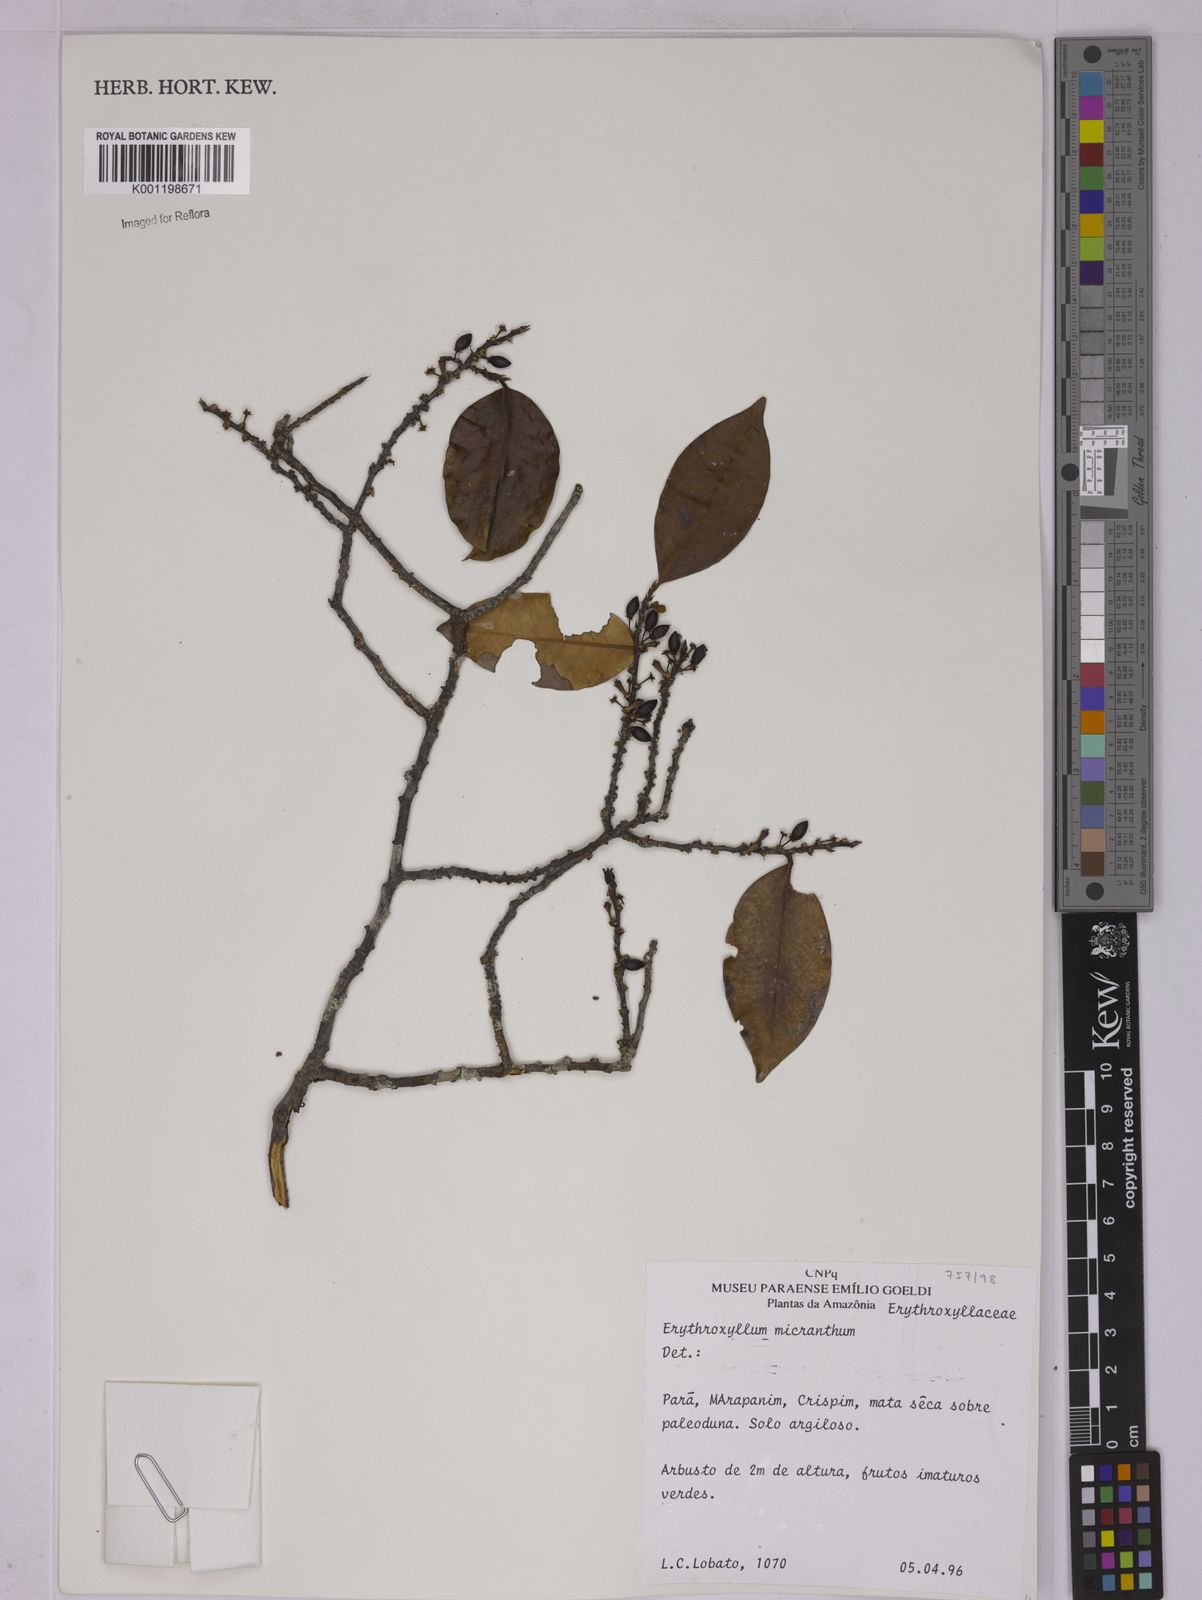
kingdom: Plantae
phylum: Tracheophyta
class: Magnoliopsida
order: Malpighiales
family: Erythroxylaceae
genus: Erythroxylum
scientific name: Erythroxylum citrifolium
